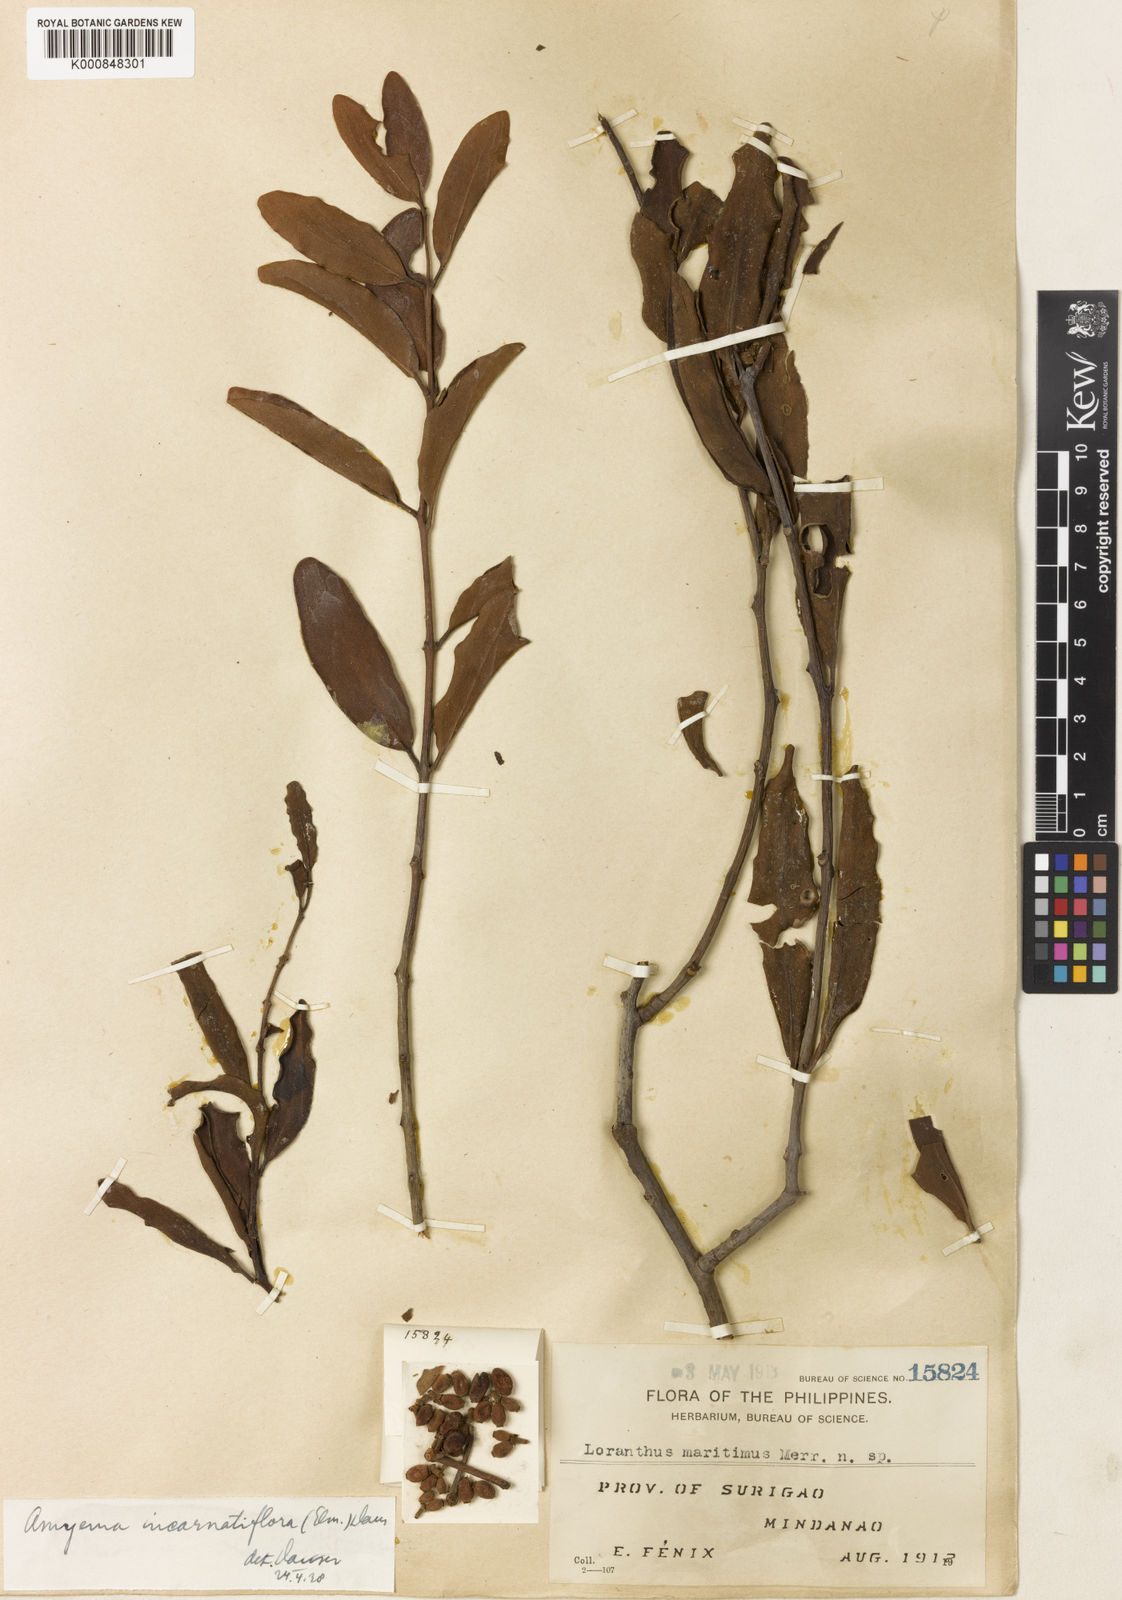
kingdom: Plantae
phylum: Tracheophyta
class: Magnoliopsida
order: Santalales
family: Loranthaceae
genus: Amyema
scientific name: Amyema
